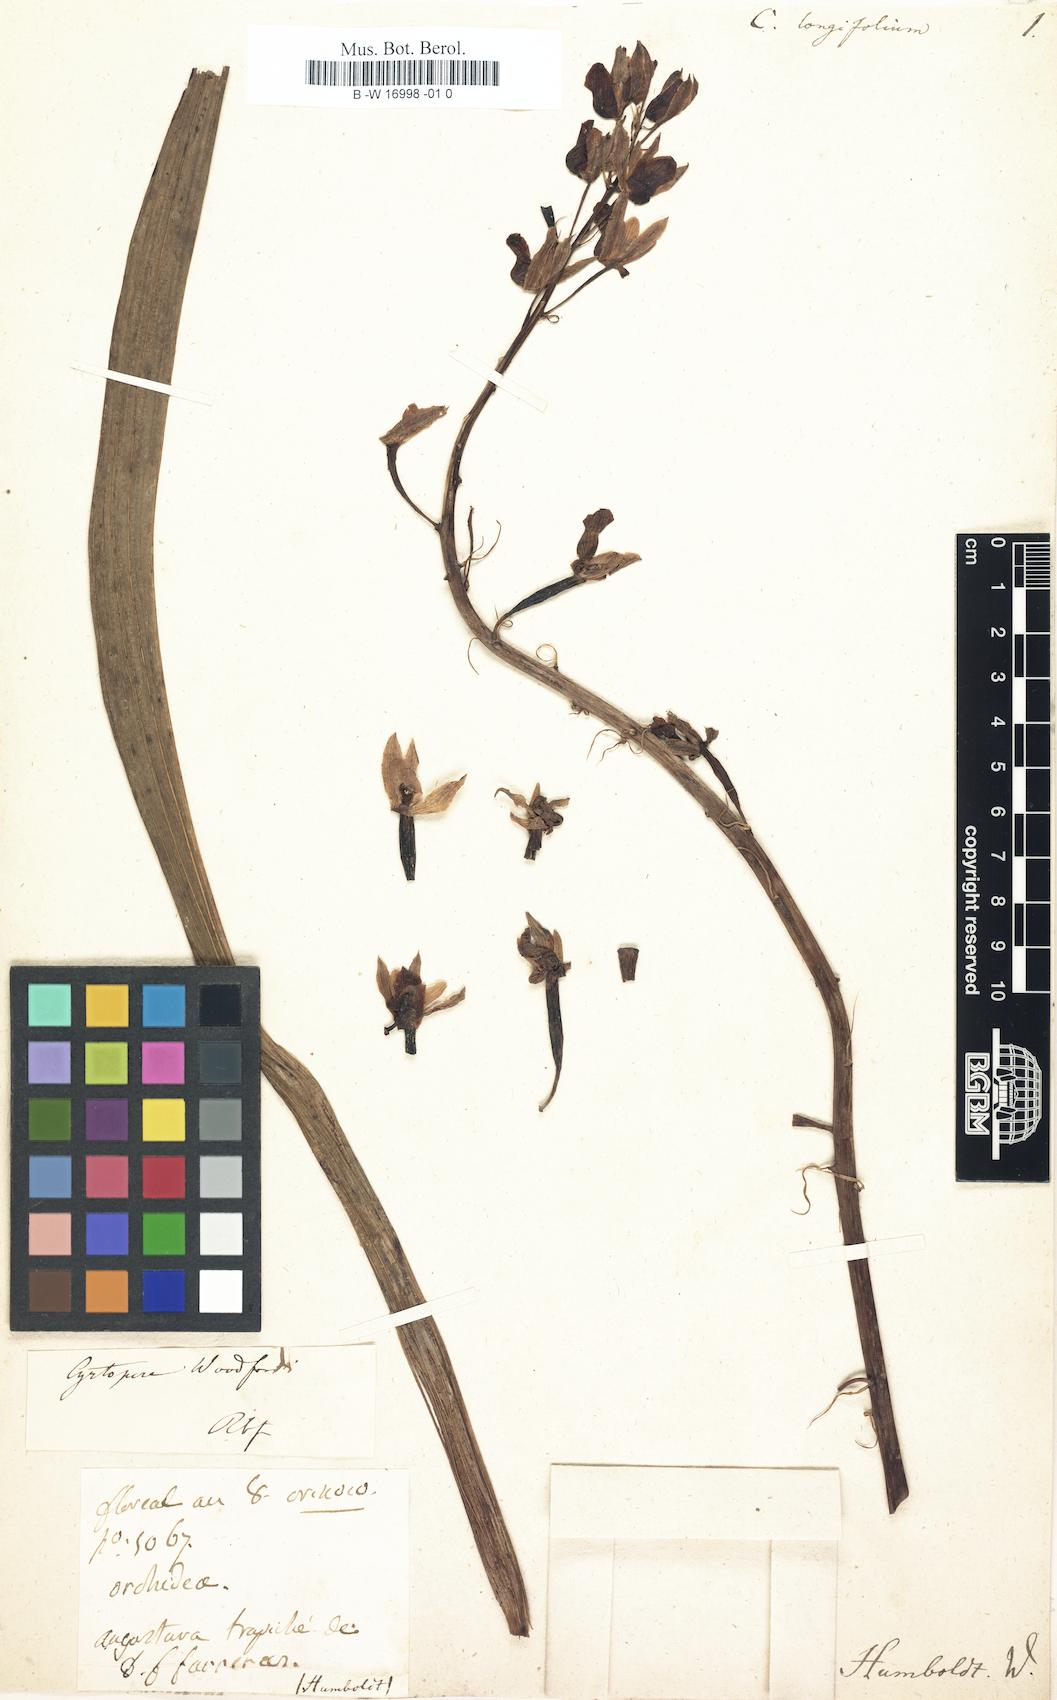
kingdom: Plantae
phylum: Tracheophyta
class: Liliopsida
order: Asparagales
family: Orchidaceae
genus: Cymbidium
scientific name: Cymbidium elegans
